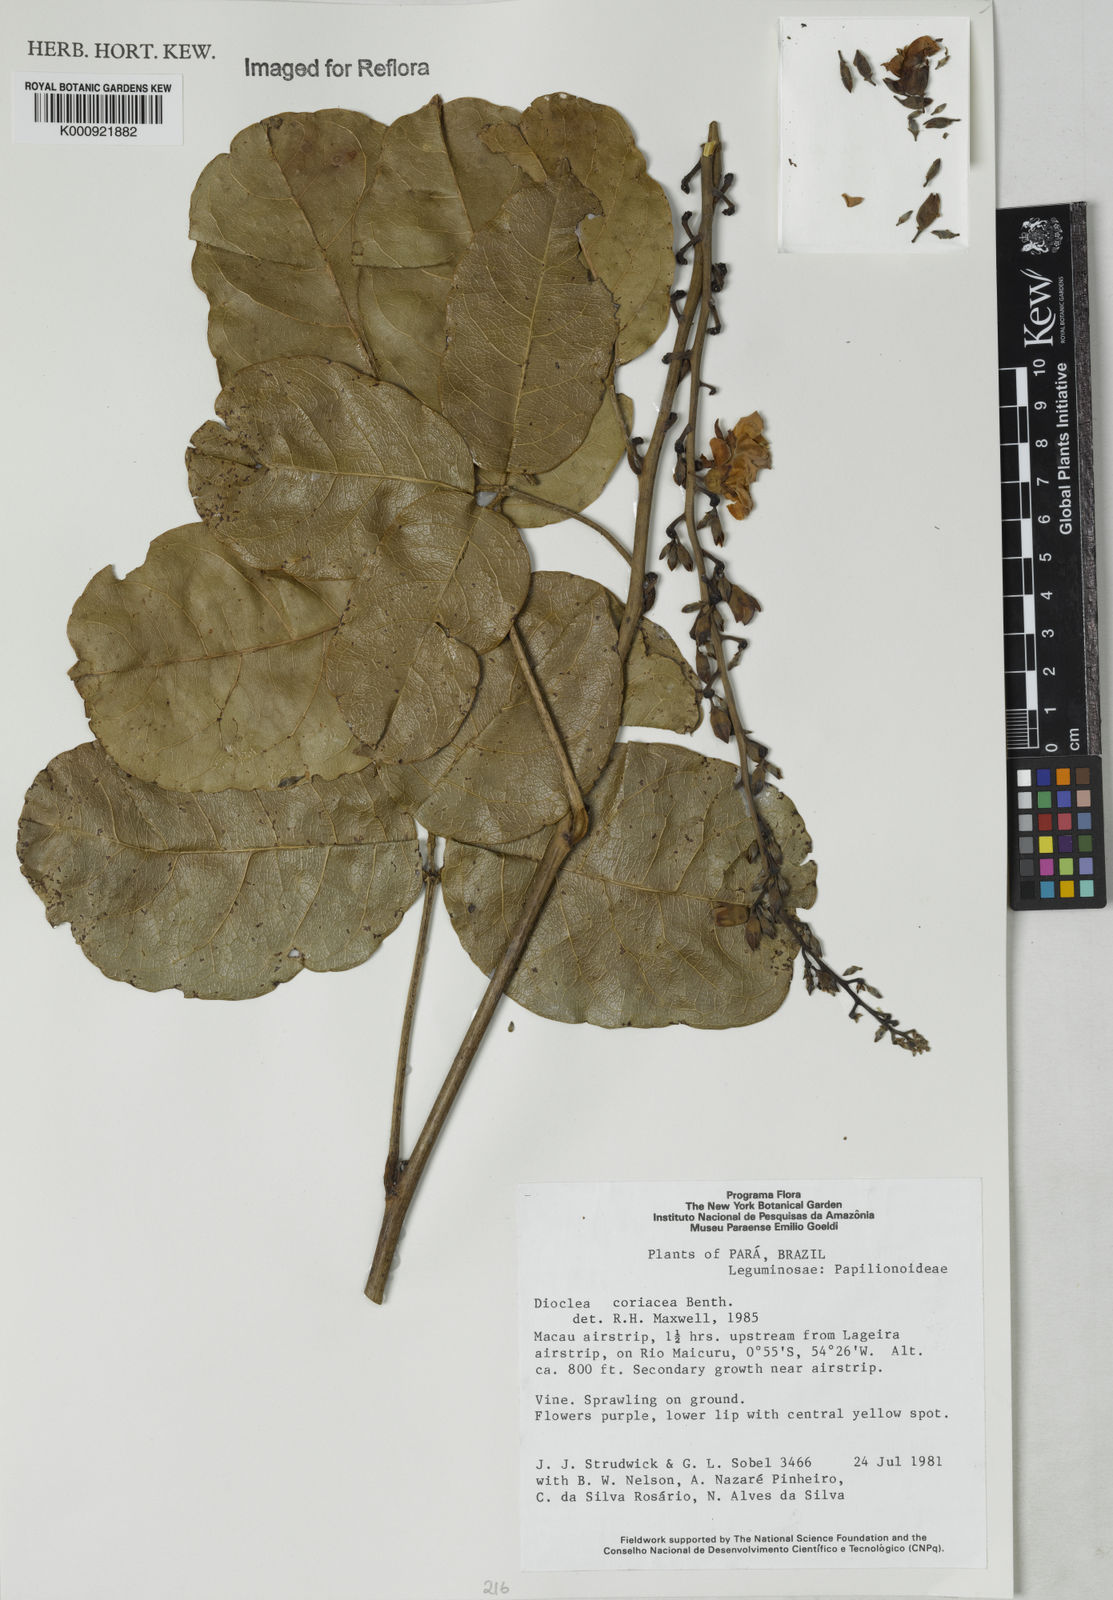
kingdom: Plantae
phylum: Tracheophyta
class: Magnoliopsida
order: Fabales
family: Fabaceae
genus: Macropsychanthus
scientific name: Macropsychanthus coriaceus
